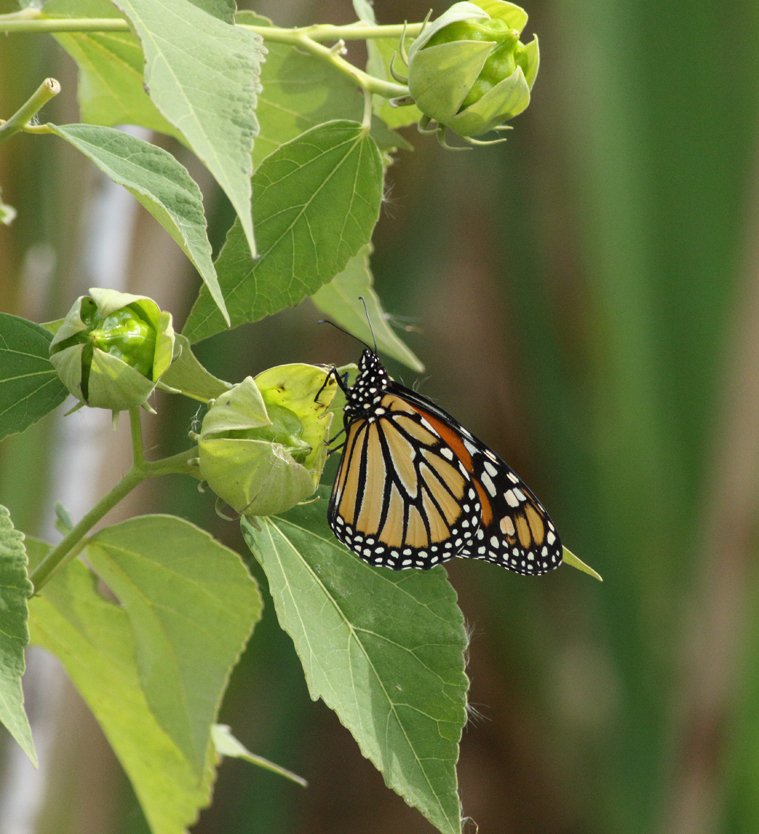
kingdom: Animalia
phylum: Arthropoda
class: Insecta
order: Lepidoptera
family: Nymphalidae
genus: Danaus
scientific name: Danaus plexippus
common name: Monarch
